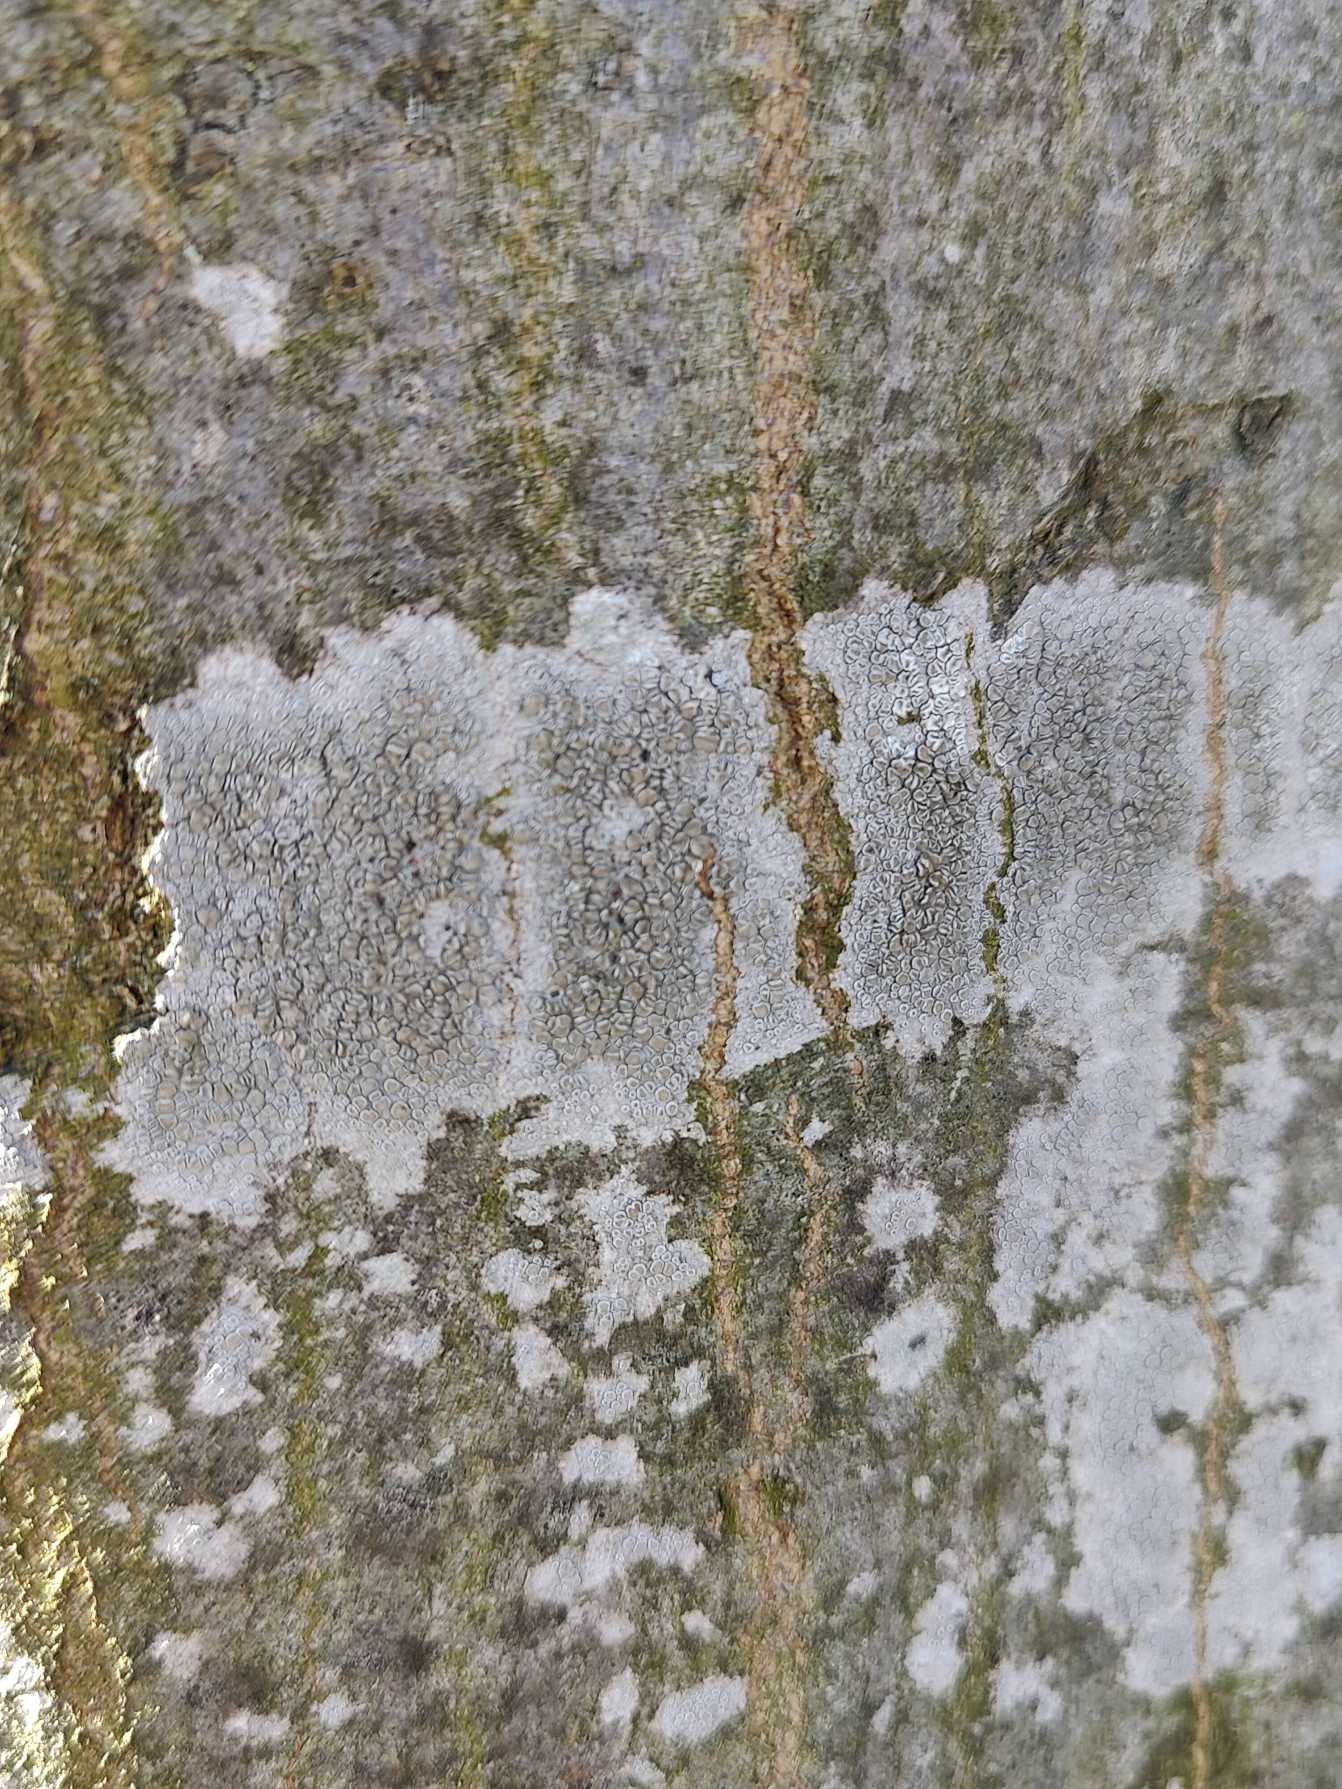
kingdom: Fungi
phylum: Ascomycota
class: Lecanoromycetes
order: Lecanorales
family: Lecanoraceae
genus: Lecanora
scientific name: Lecanora chlarotera
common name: Brun kantskivelav
